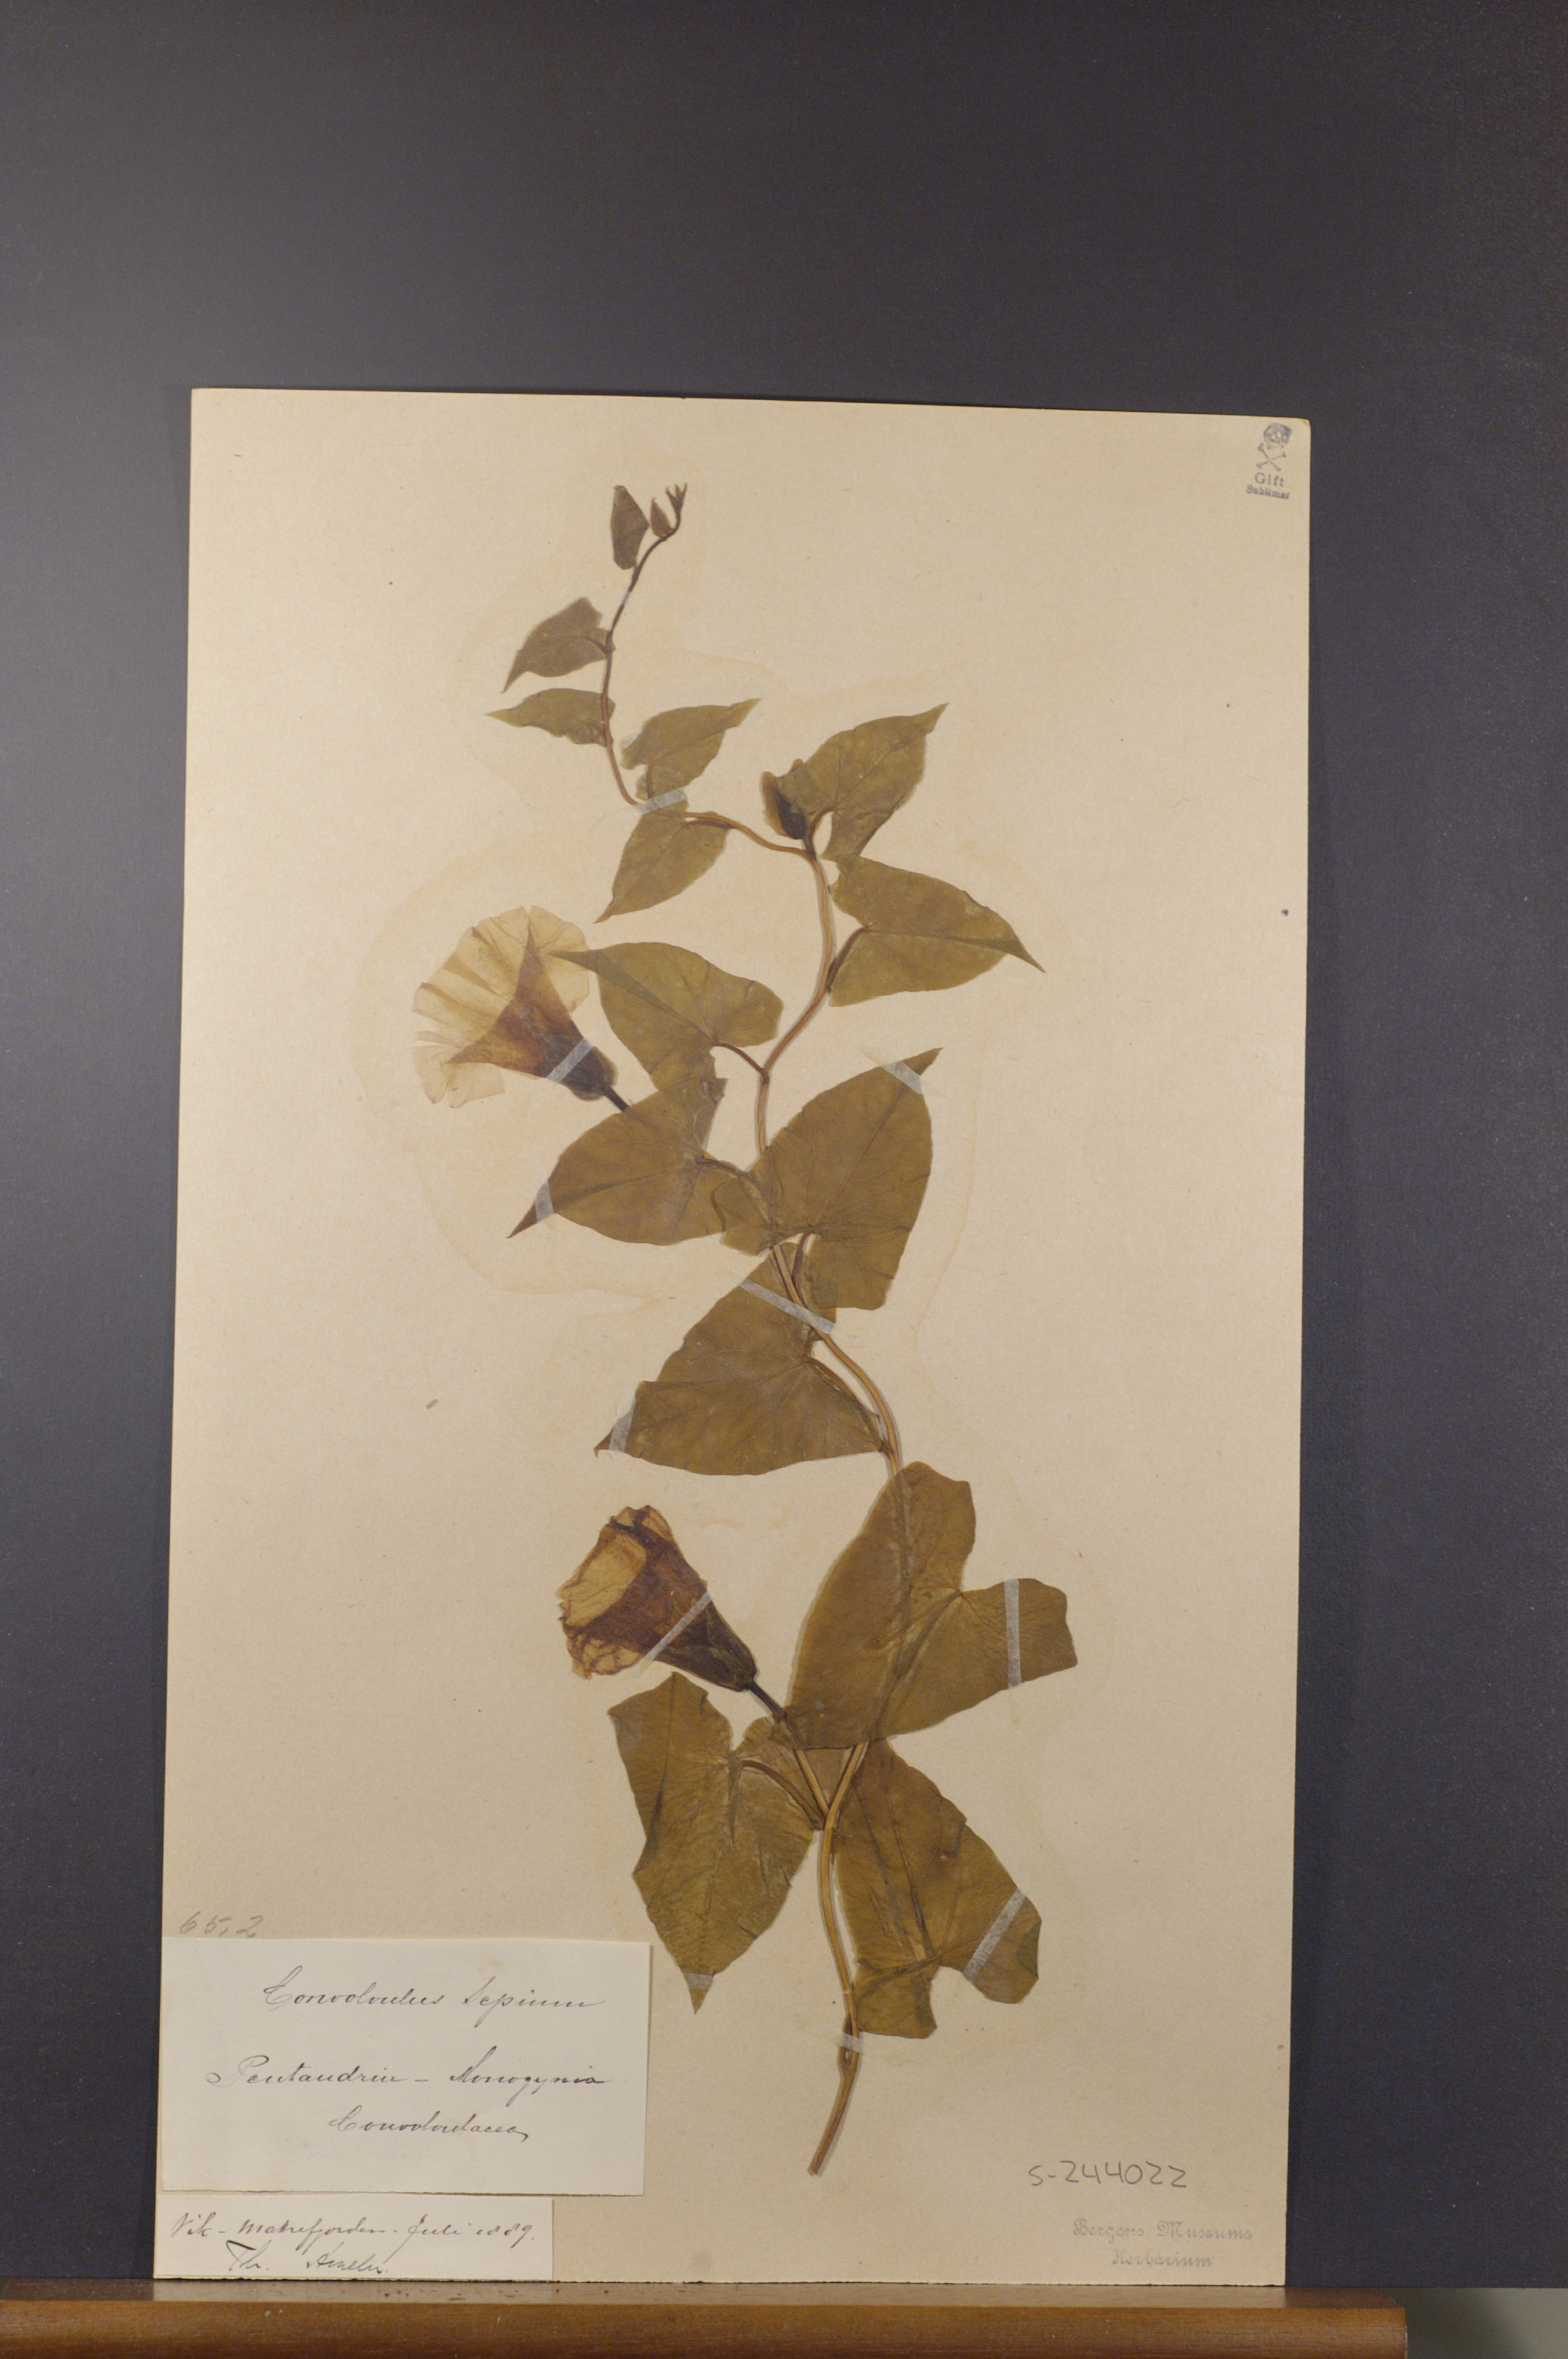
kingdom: Plantae
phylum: Tracheophyta
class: Magnoliopsida
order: Solanales
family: Convolvulaceae
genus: Calystegia
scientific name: Calystegia sepium
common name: Hedge bindweed
